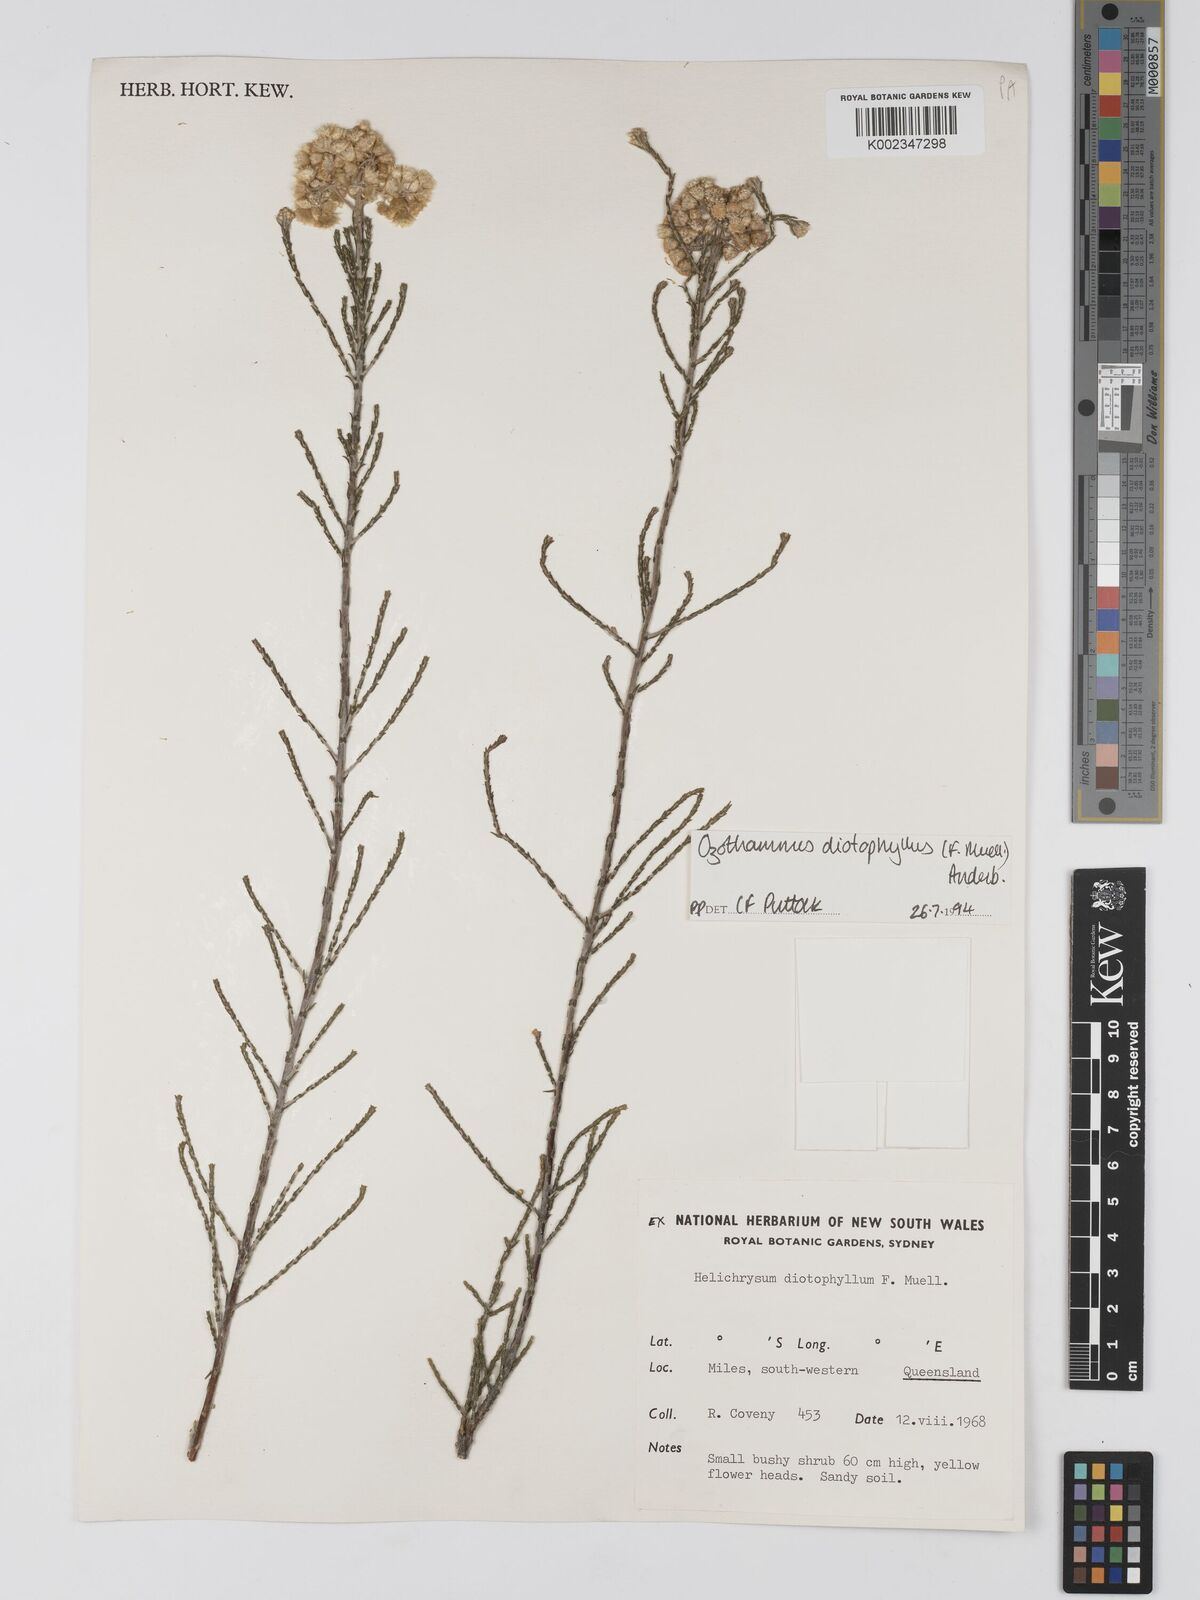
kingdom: Plantae
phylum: Tracheophyta
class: Magnoliopsida
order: Asterales
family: Asteraceae
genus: Ozothamnus
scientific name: Ozothamnus diotophyllus
